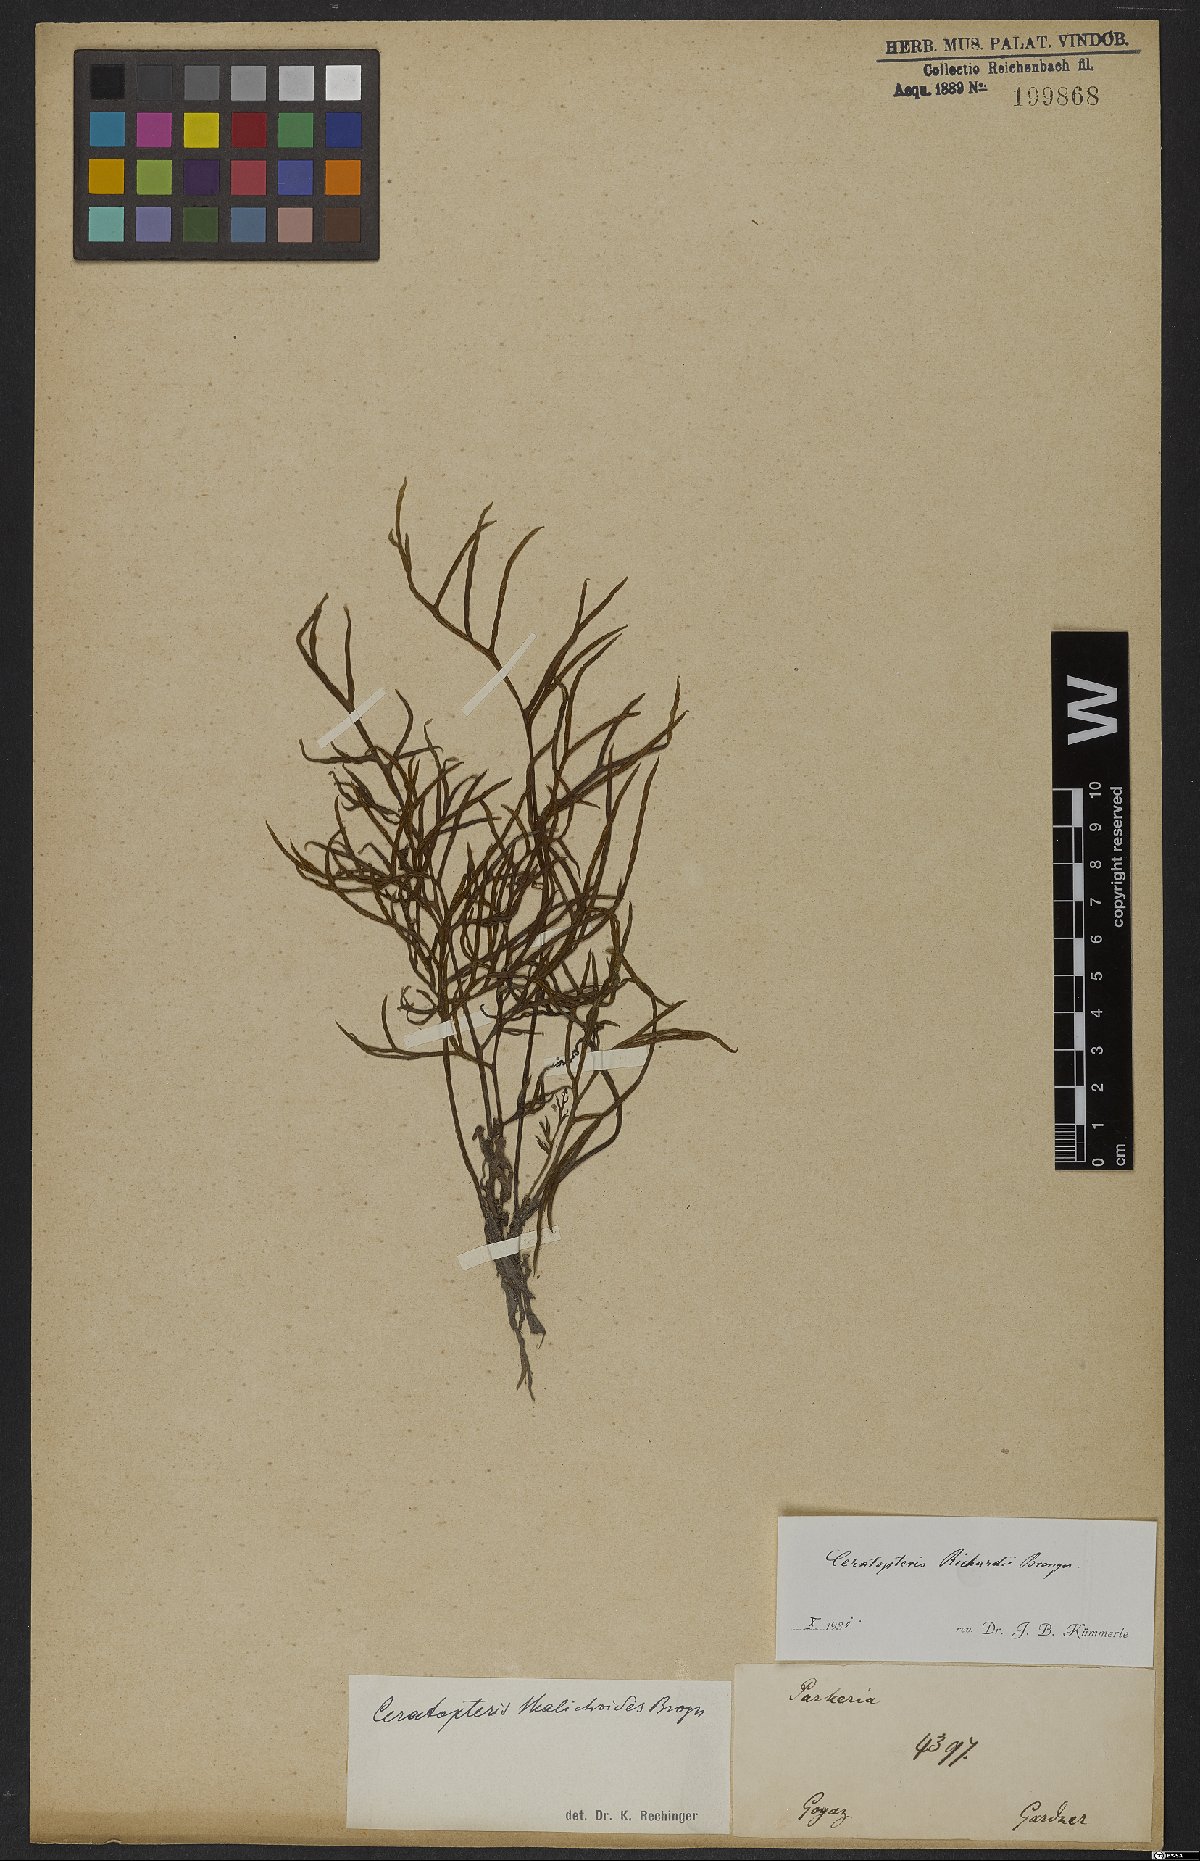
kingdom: Plantae
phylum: Tracheophyta
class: Polypodiopsida
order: Polypodiales
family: Pteridaceae
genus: Ceratopteris
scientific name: Ceratopteris richardii
